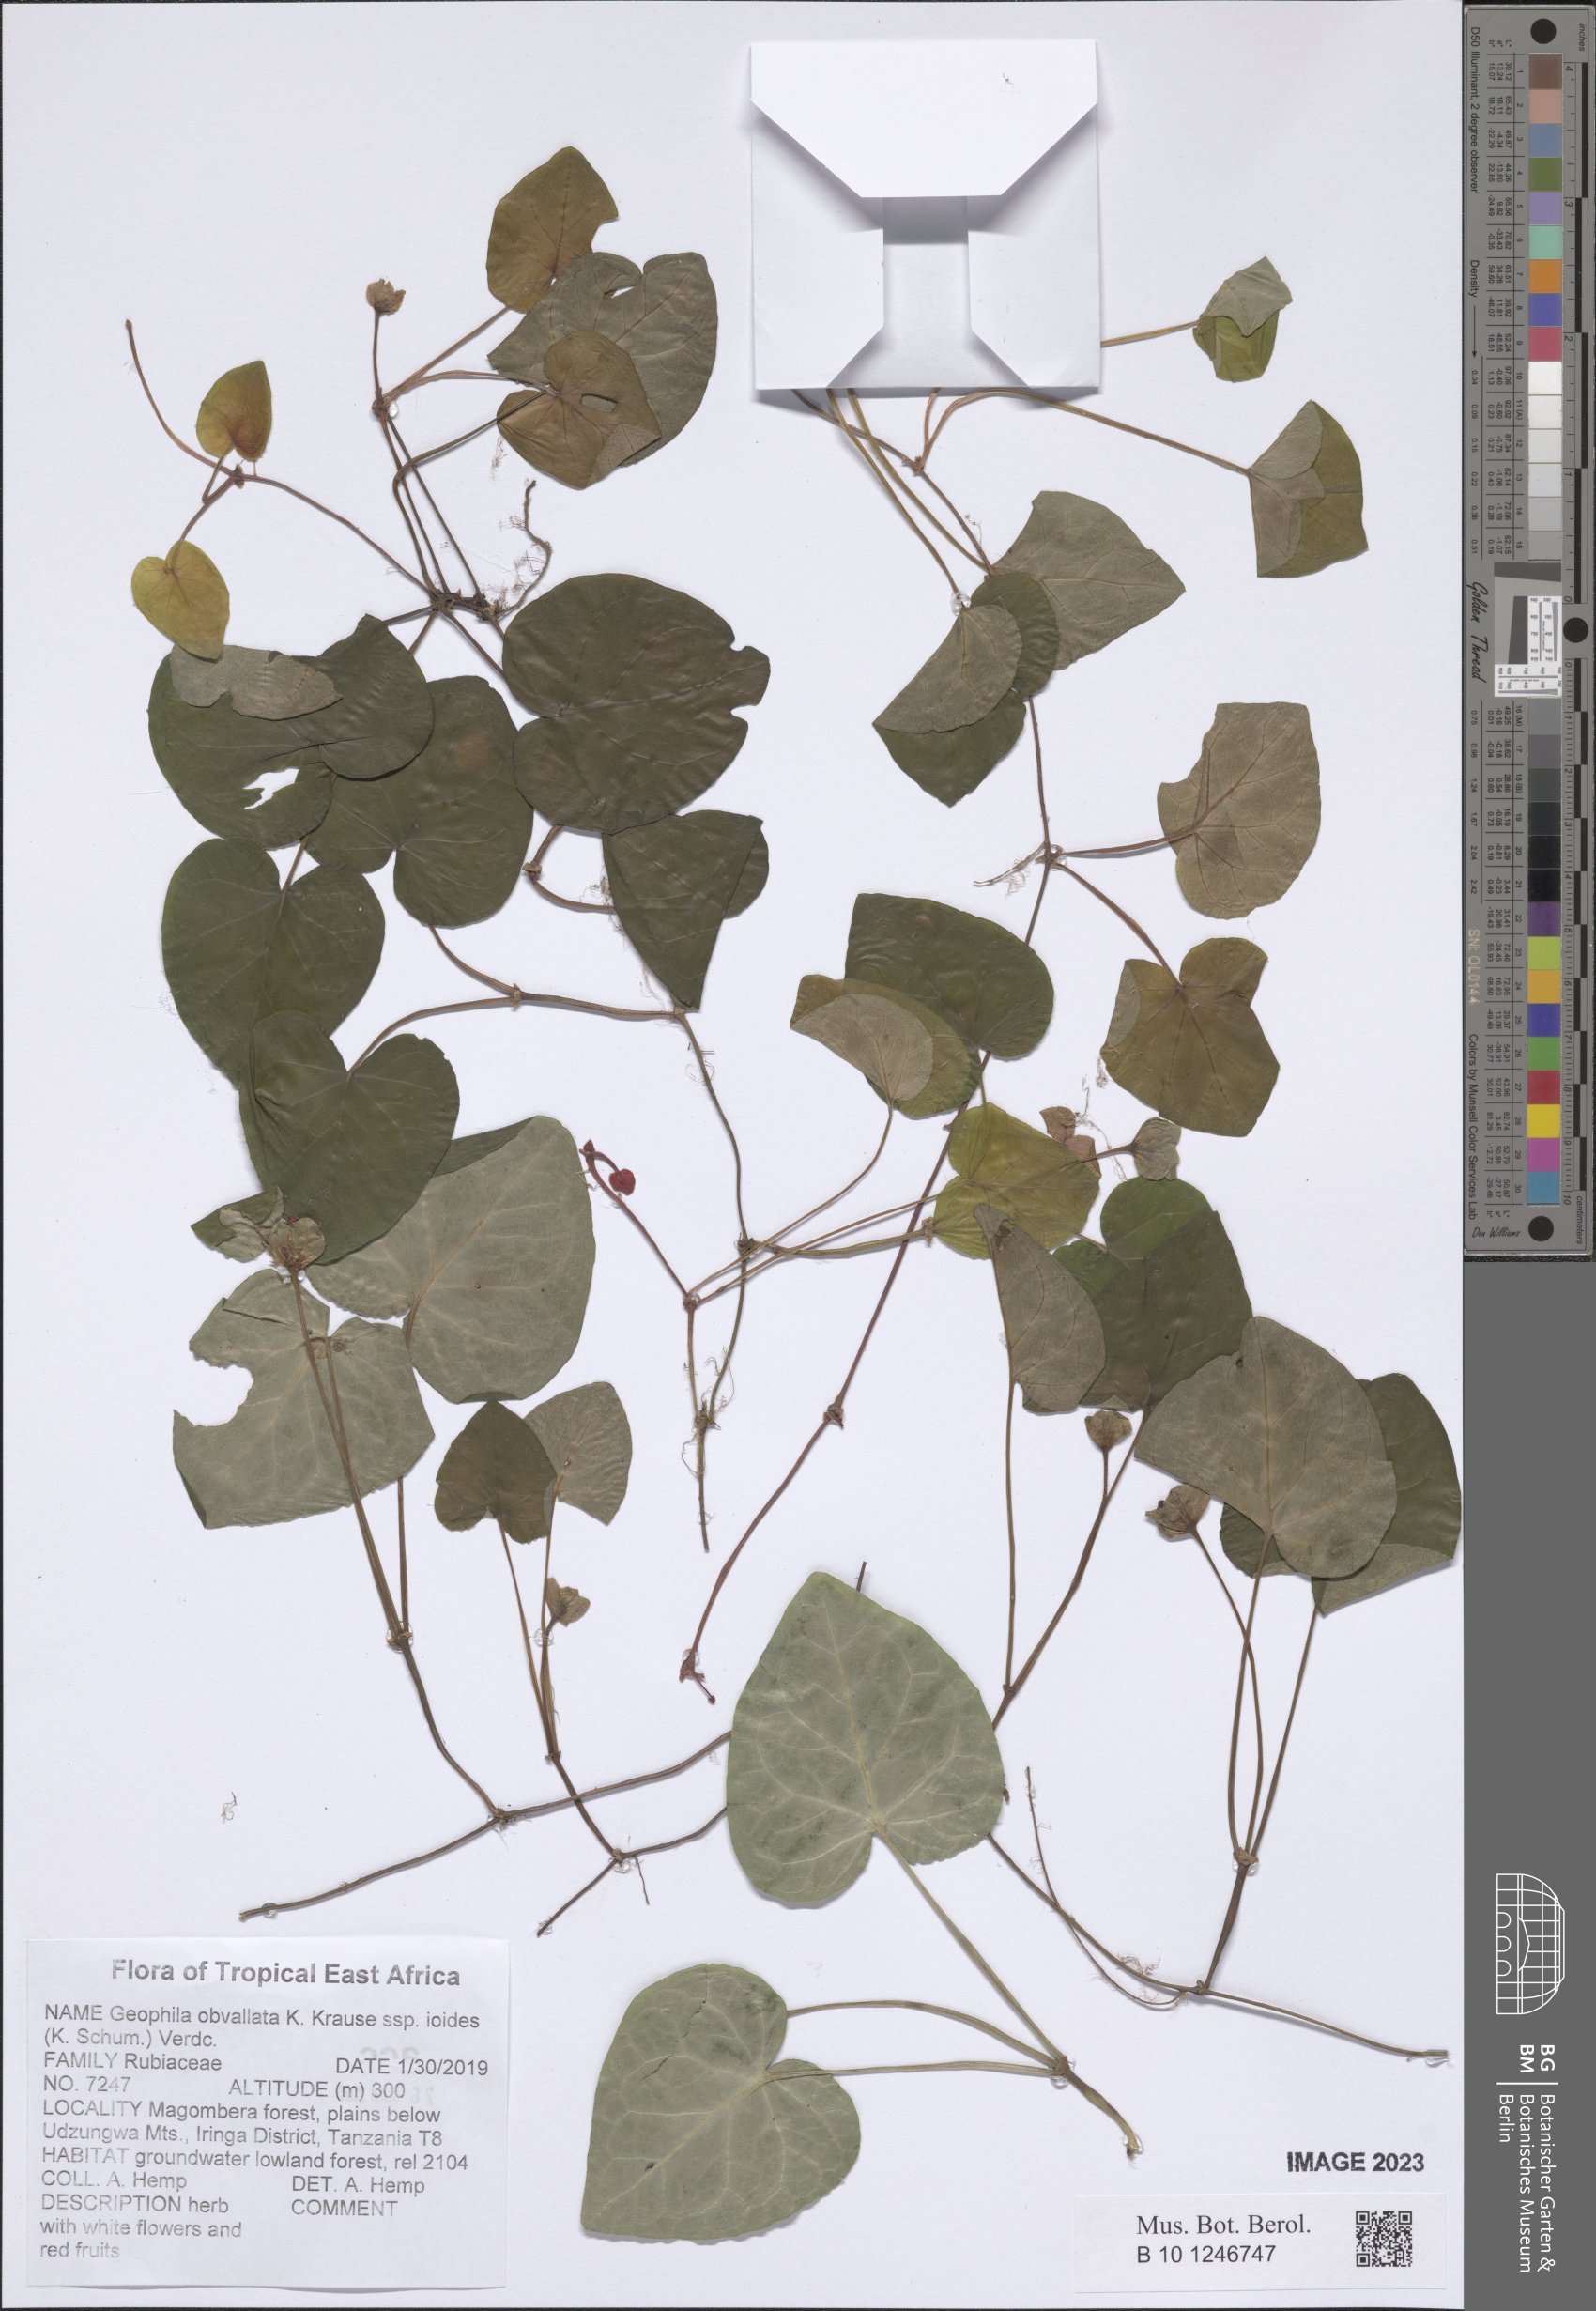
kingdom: Plantae
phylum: Tracheophyta
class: Magnoliopsida
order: Gentianales
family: Rubiaceae
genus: Geophila
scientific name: Geophila obvallata
